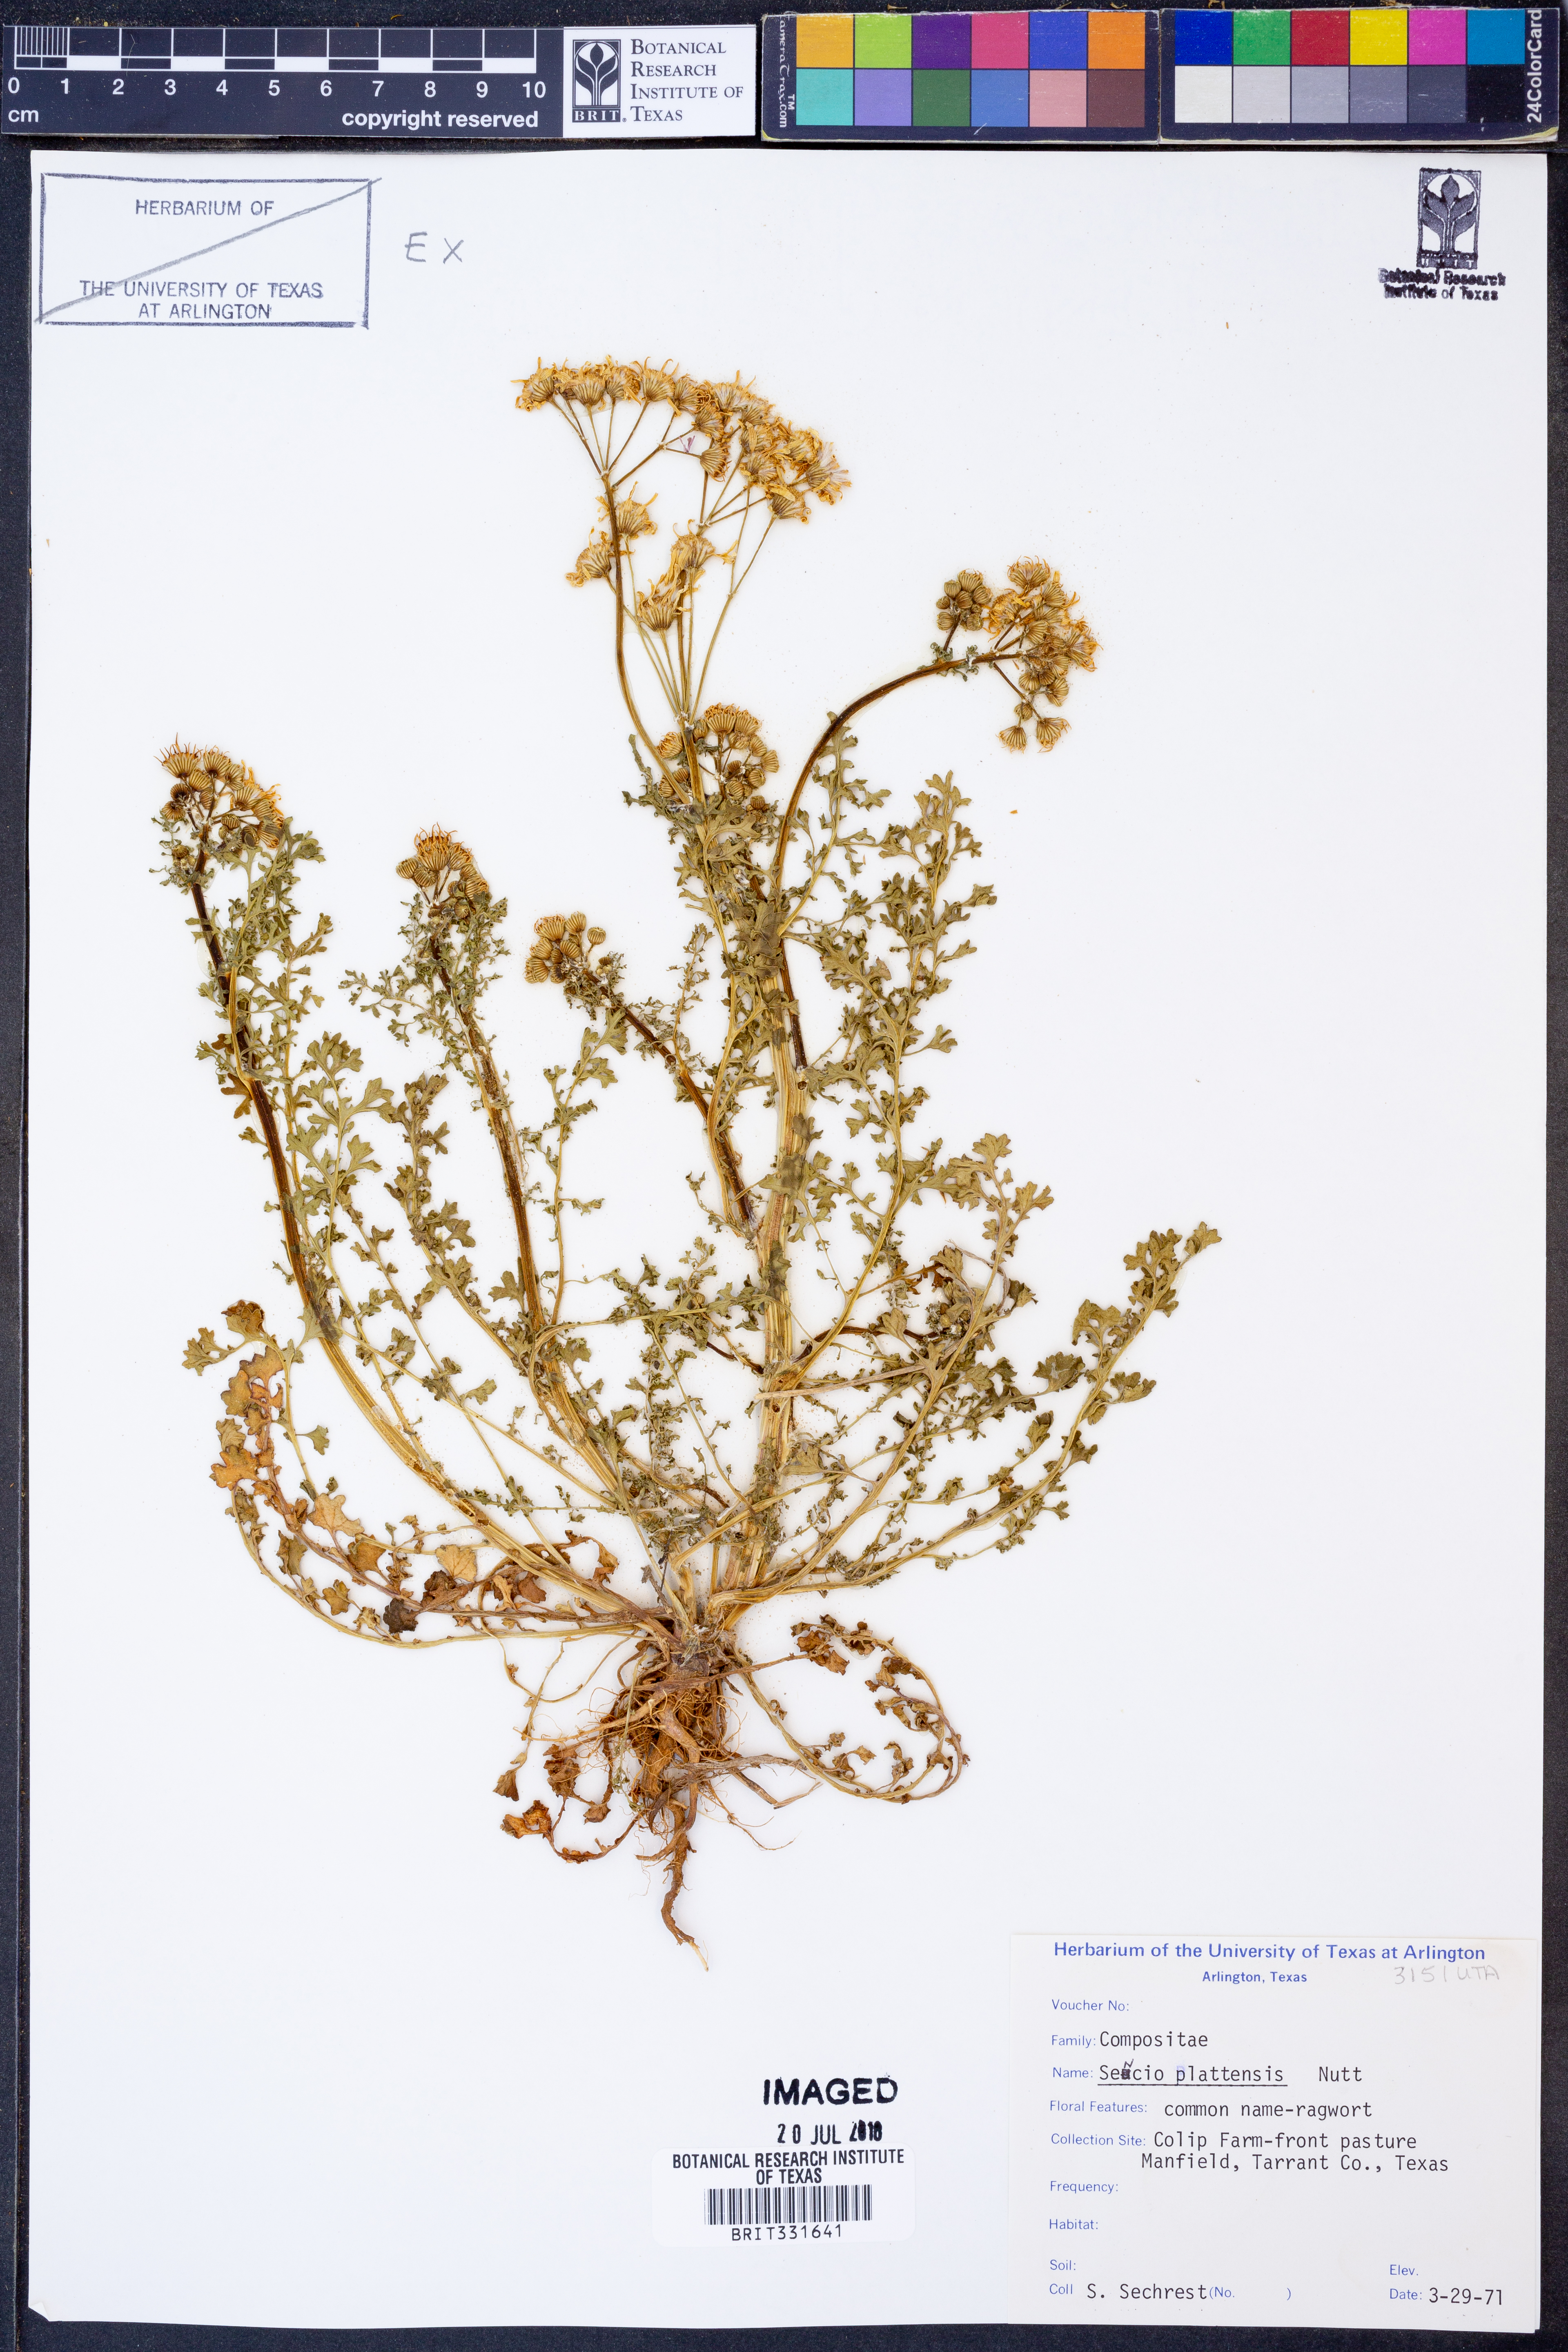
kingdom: Plantae
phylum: Tracheophyta
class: Magnoliopsida
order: Asterales
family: Asteraceae
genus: Packera
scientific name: Packera plattensis
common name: Prairie groundsel
